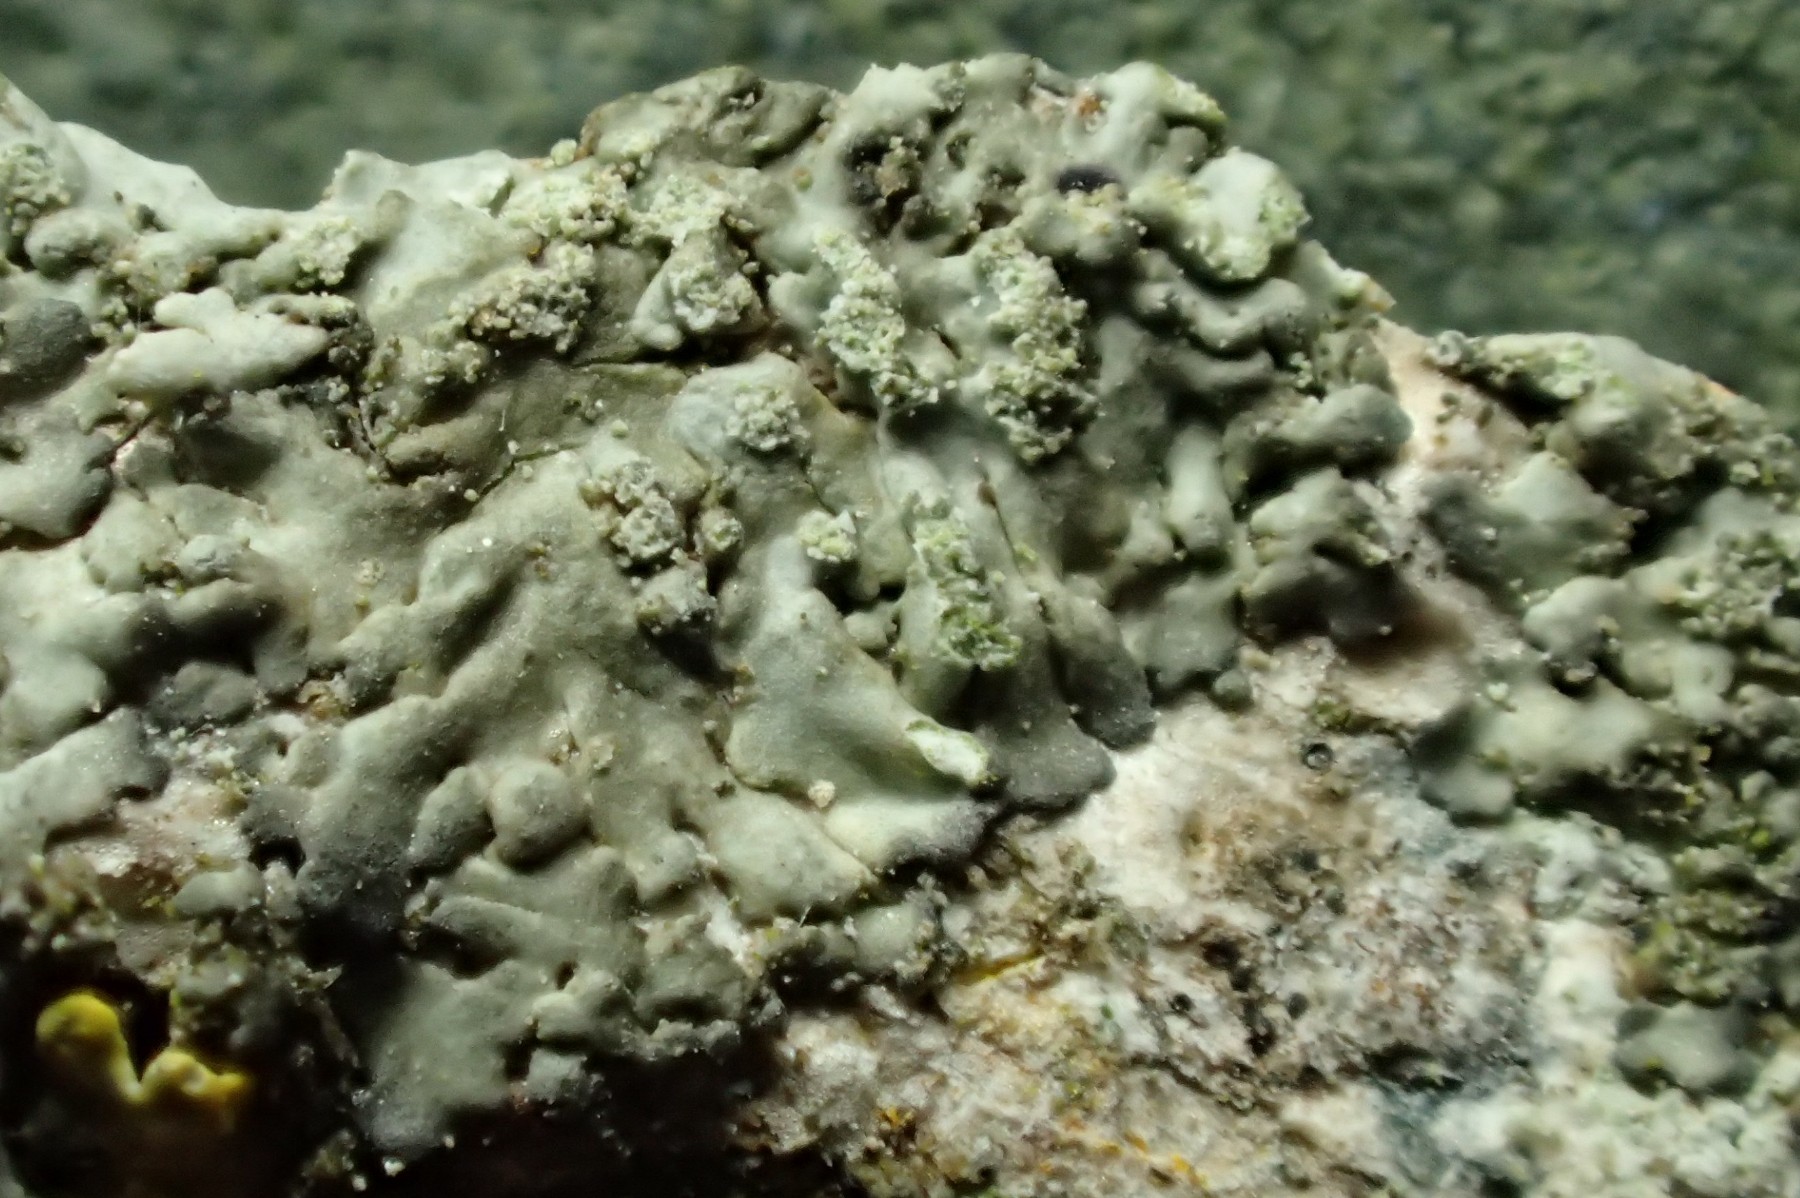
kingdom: Fungi
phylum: Ascomycota
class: Lecanoromycetes
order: Caliciales
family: Physciaceae
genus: Hyperphyscia
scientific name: Hyperphyscia adglutinata
